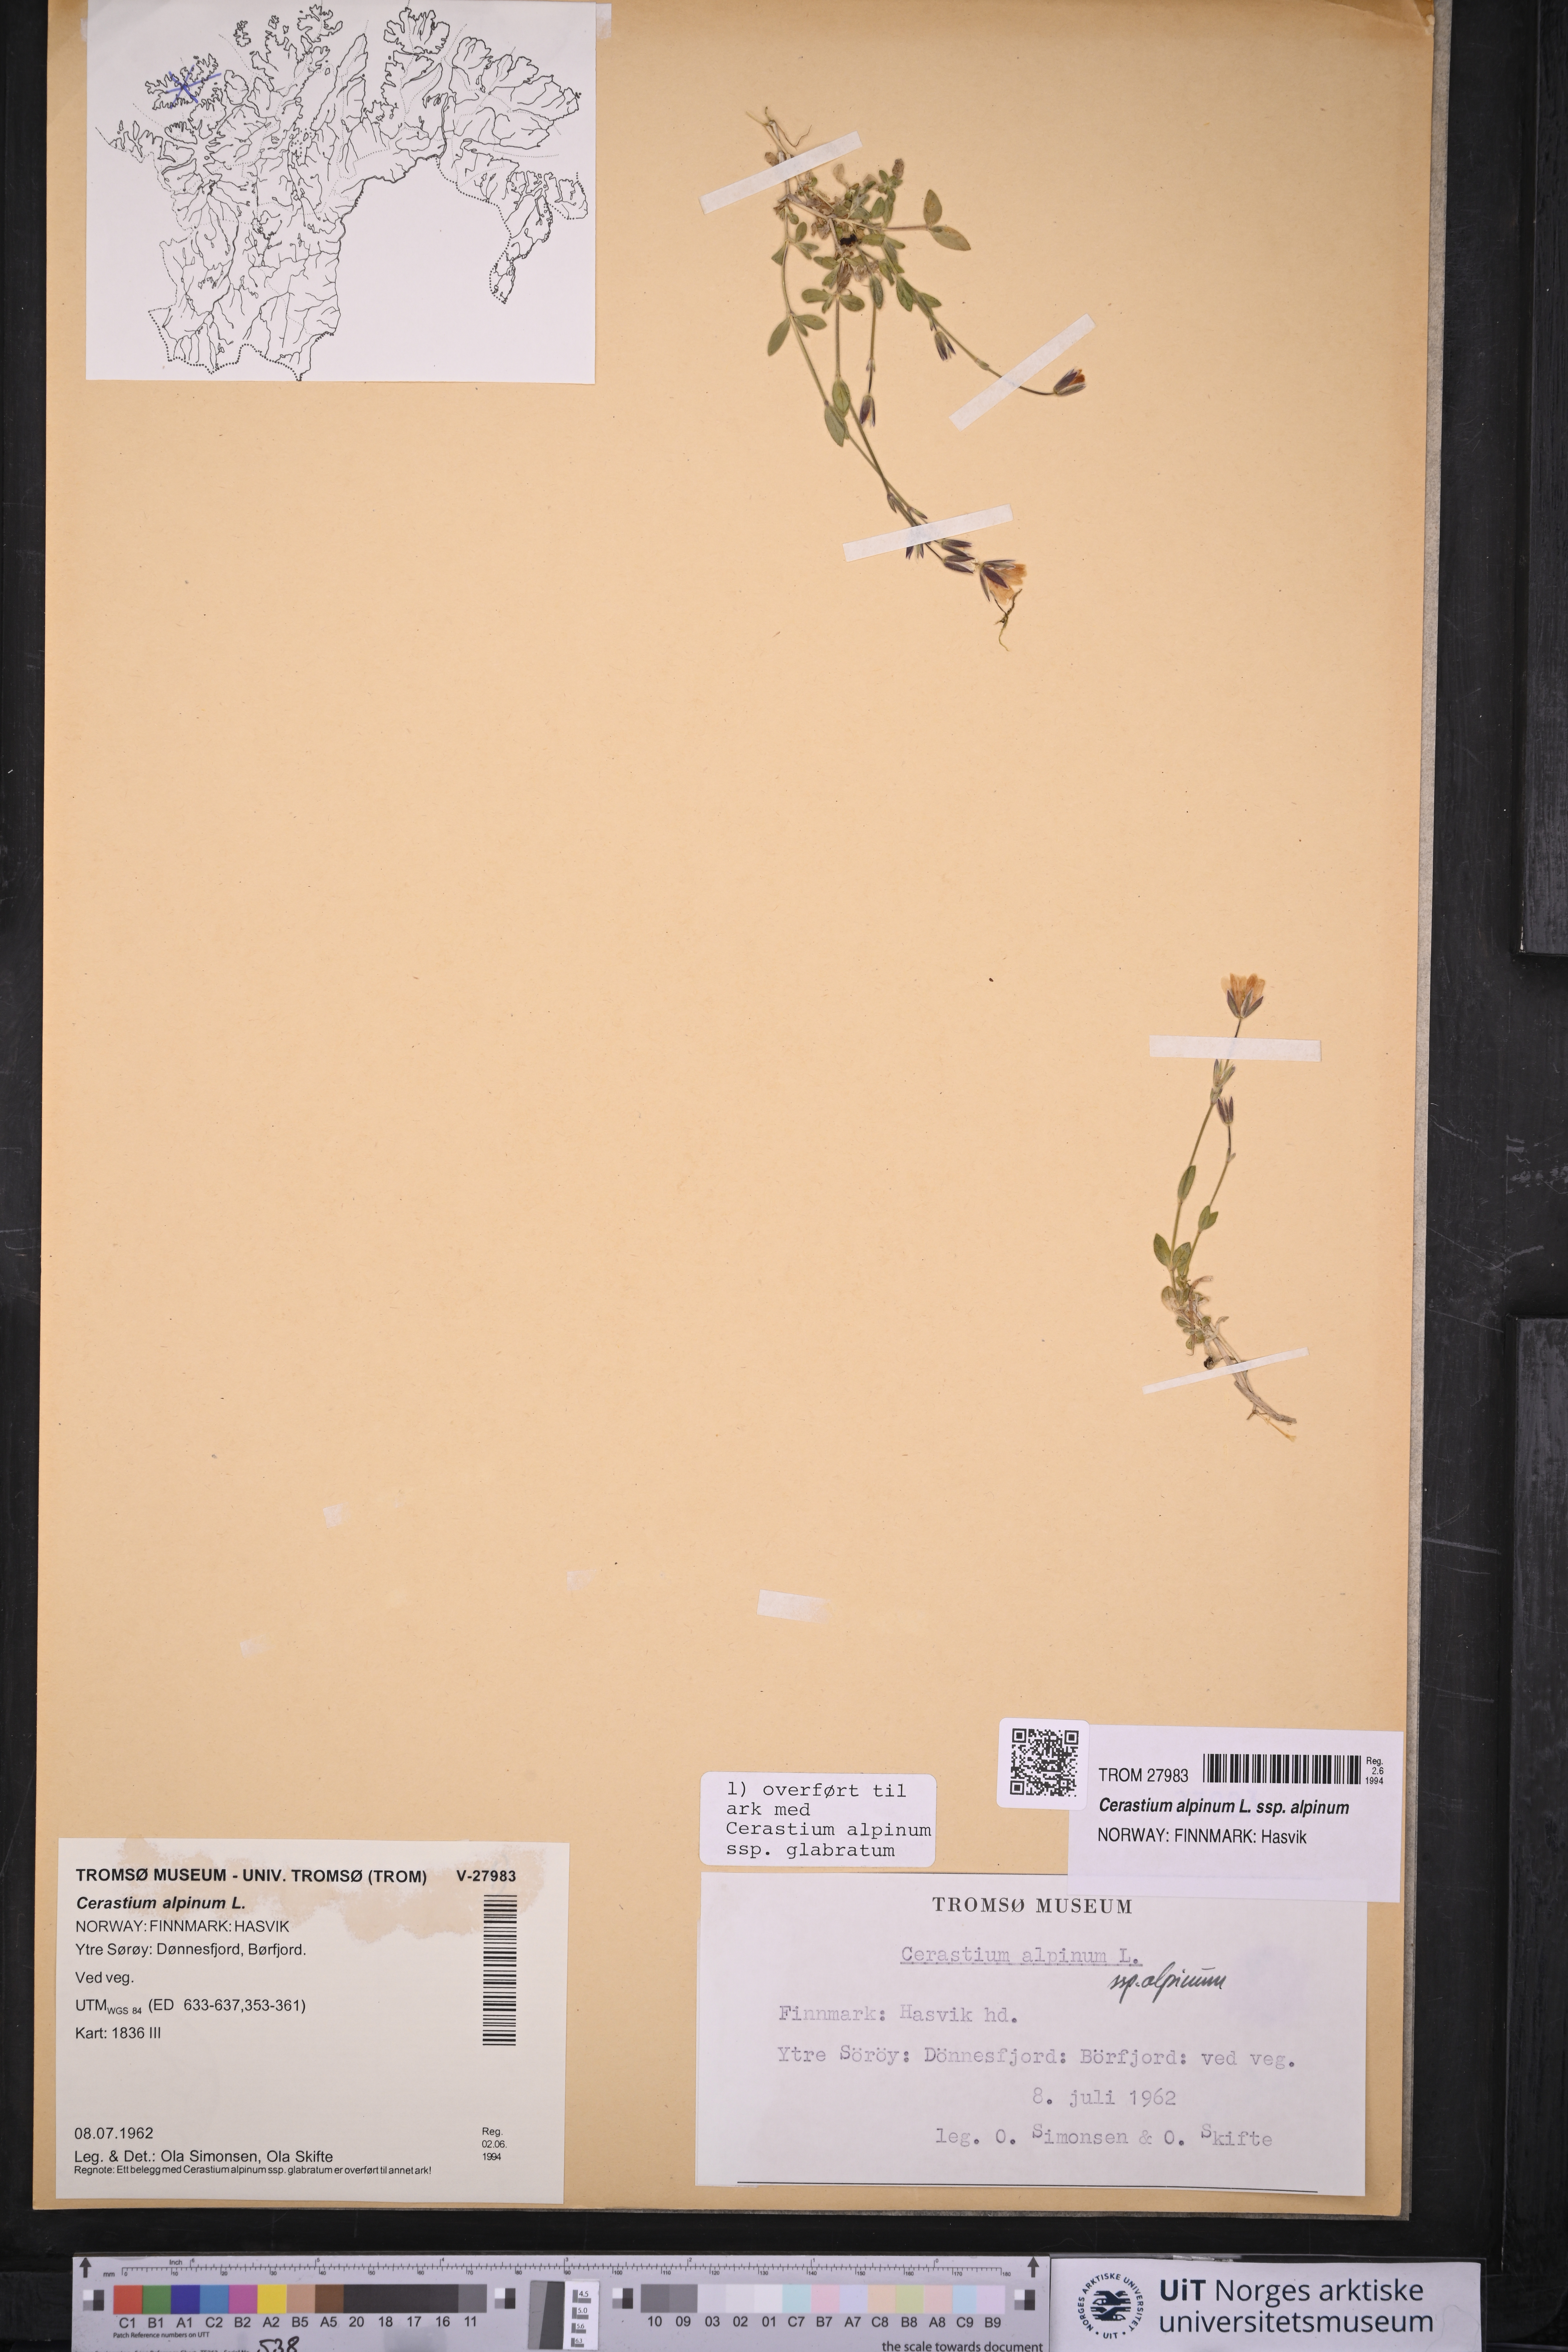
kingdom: Plantae
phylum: Tracheophyta
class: Magnoliopsida
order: Caryophyllales
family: Caryophyllaceae
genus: Cerastium
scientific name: Cerastium alpinum
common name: Alpine mouse-ear
